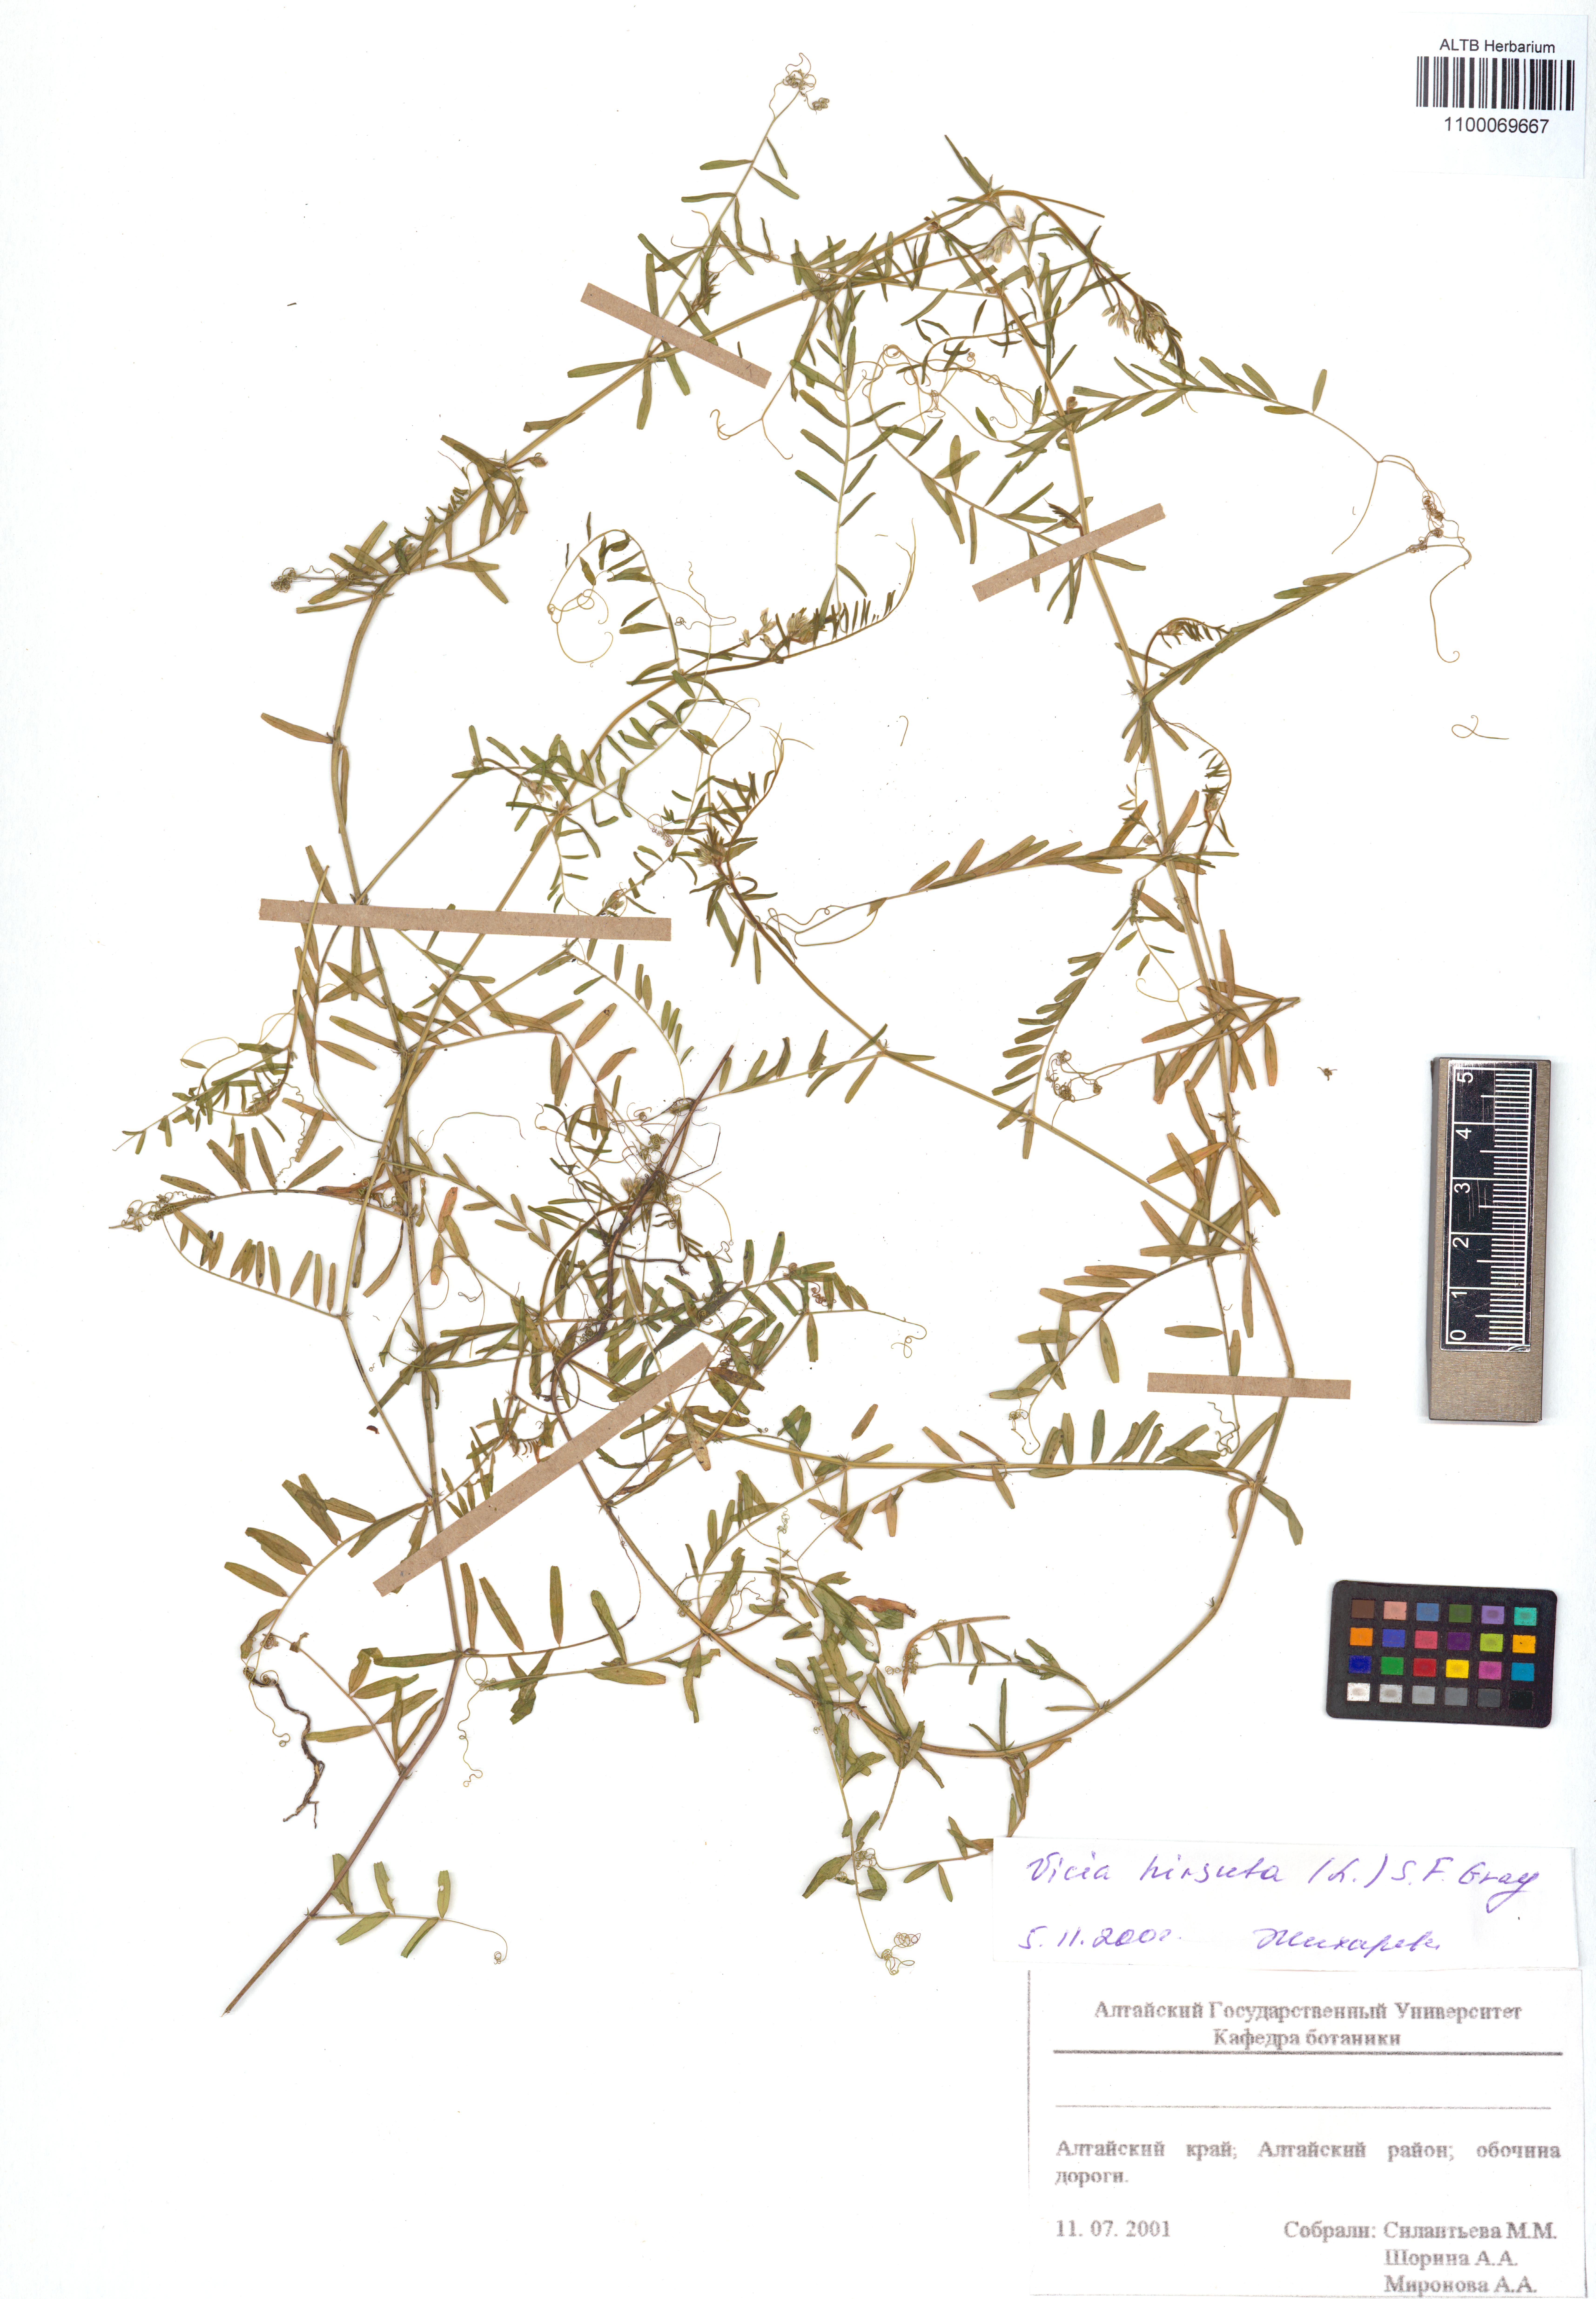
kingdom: Plantae
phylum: Tracheophyta
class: Magnoliopsida
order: Fabales
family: Fabaceae
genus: Vicia
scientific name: Vicia hirsuta
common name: Tiny vetch
